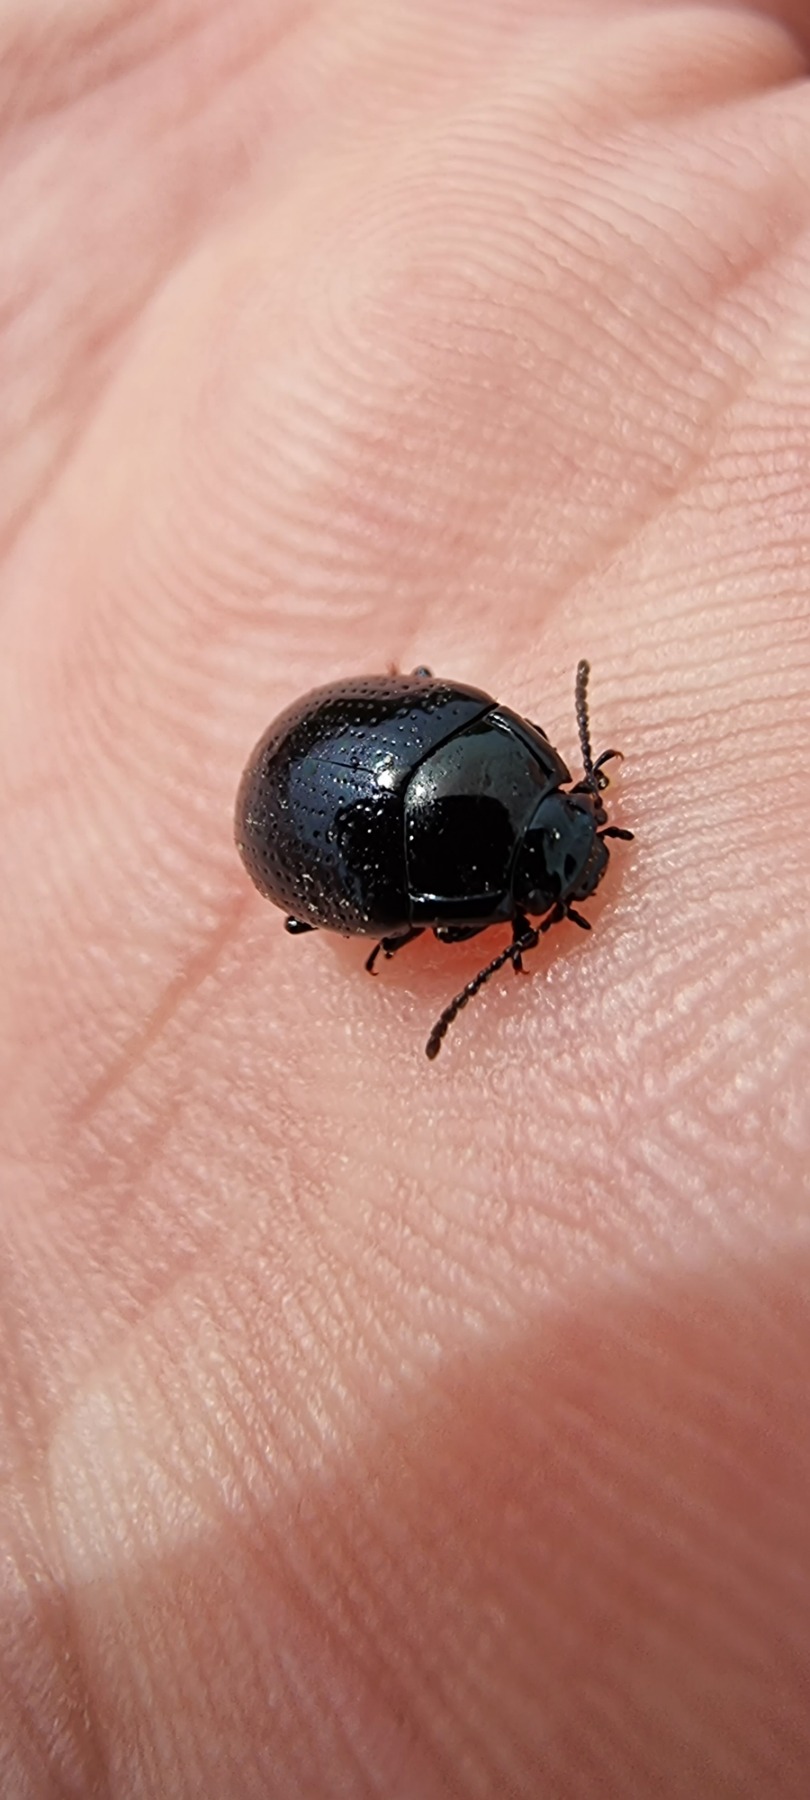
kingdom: Animalia
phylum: Arthropoda
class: Insecta
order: Coleoptera
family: Chrysomelidae
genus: Chrysolina
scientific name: Chrysolina oricalcia
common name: Rækkepunkteret guldbille
